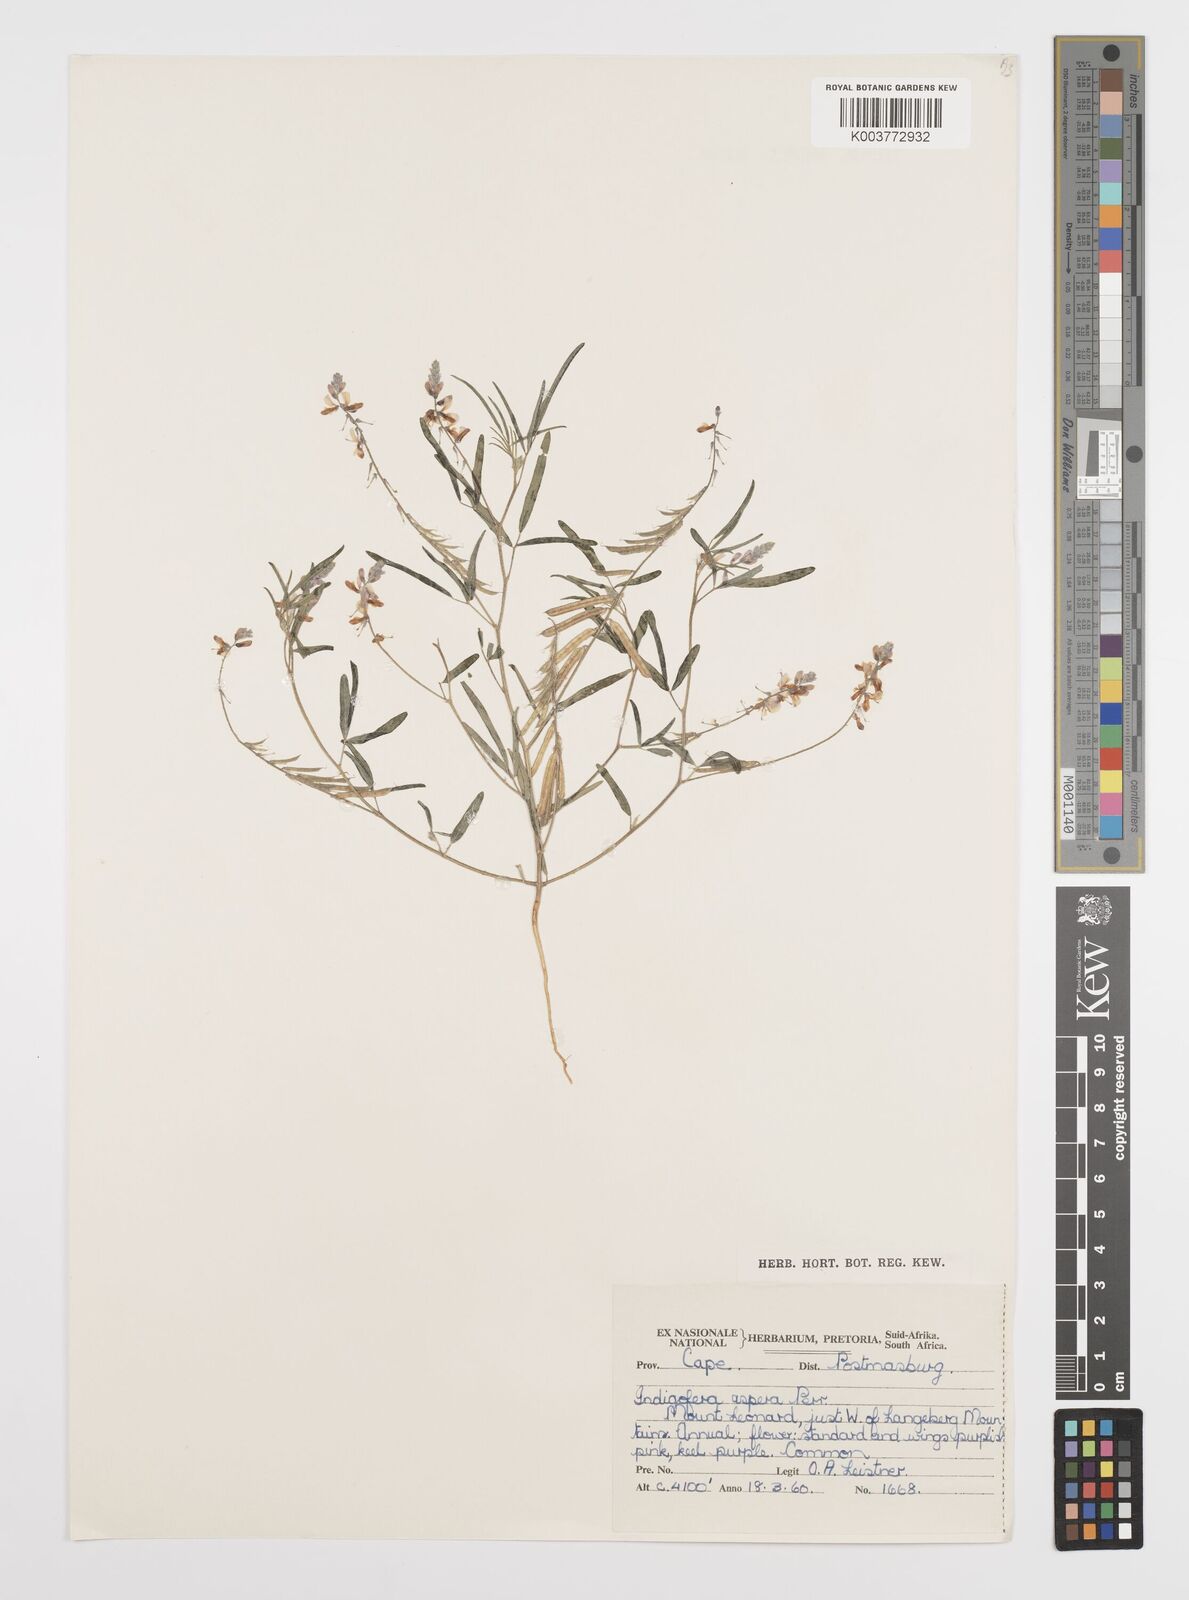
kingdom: Plantae
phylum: Tracheophyta
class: Magnoliopsida
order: Fabales
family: Fabaceae
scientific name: Fabaceae
